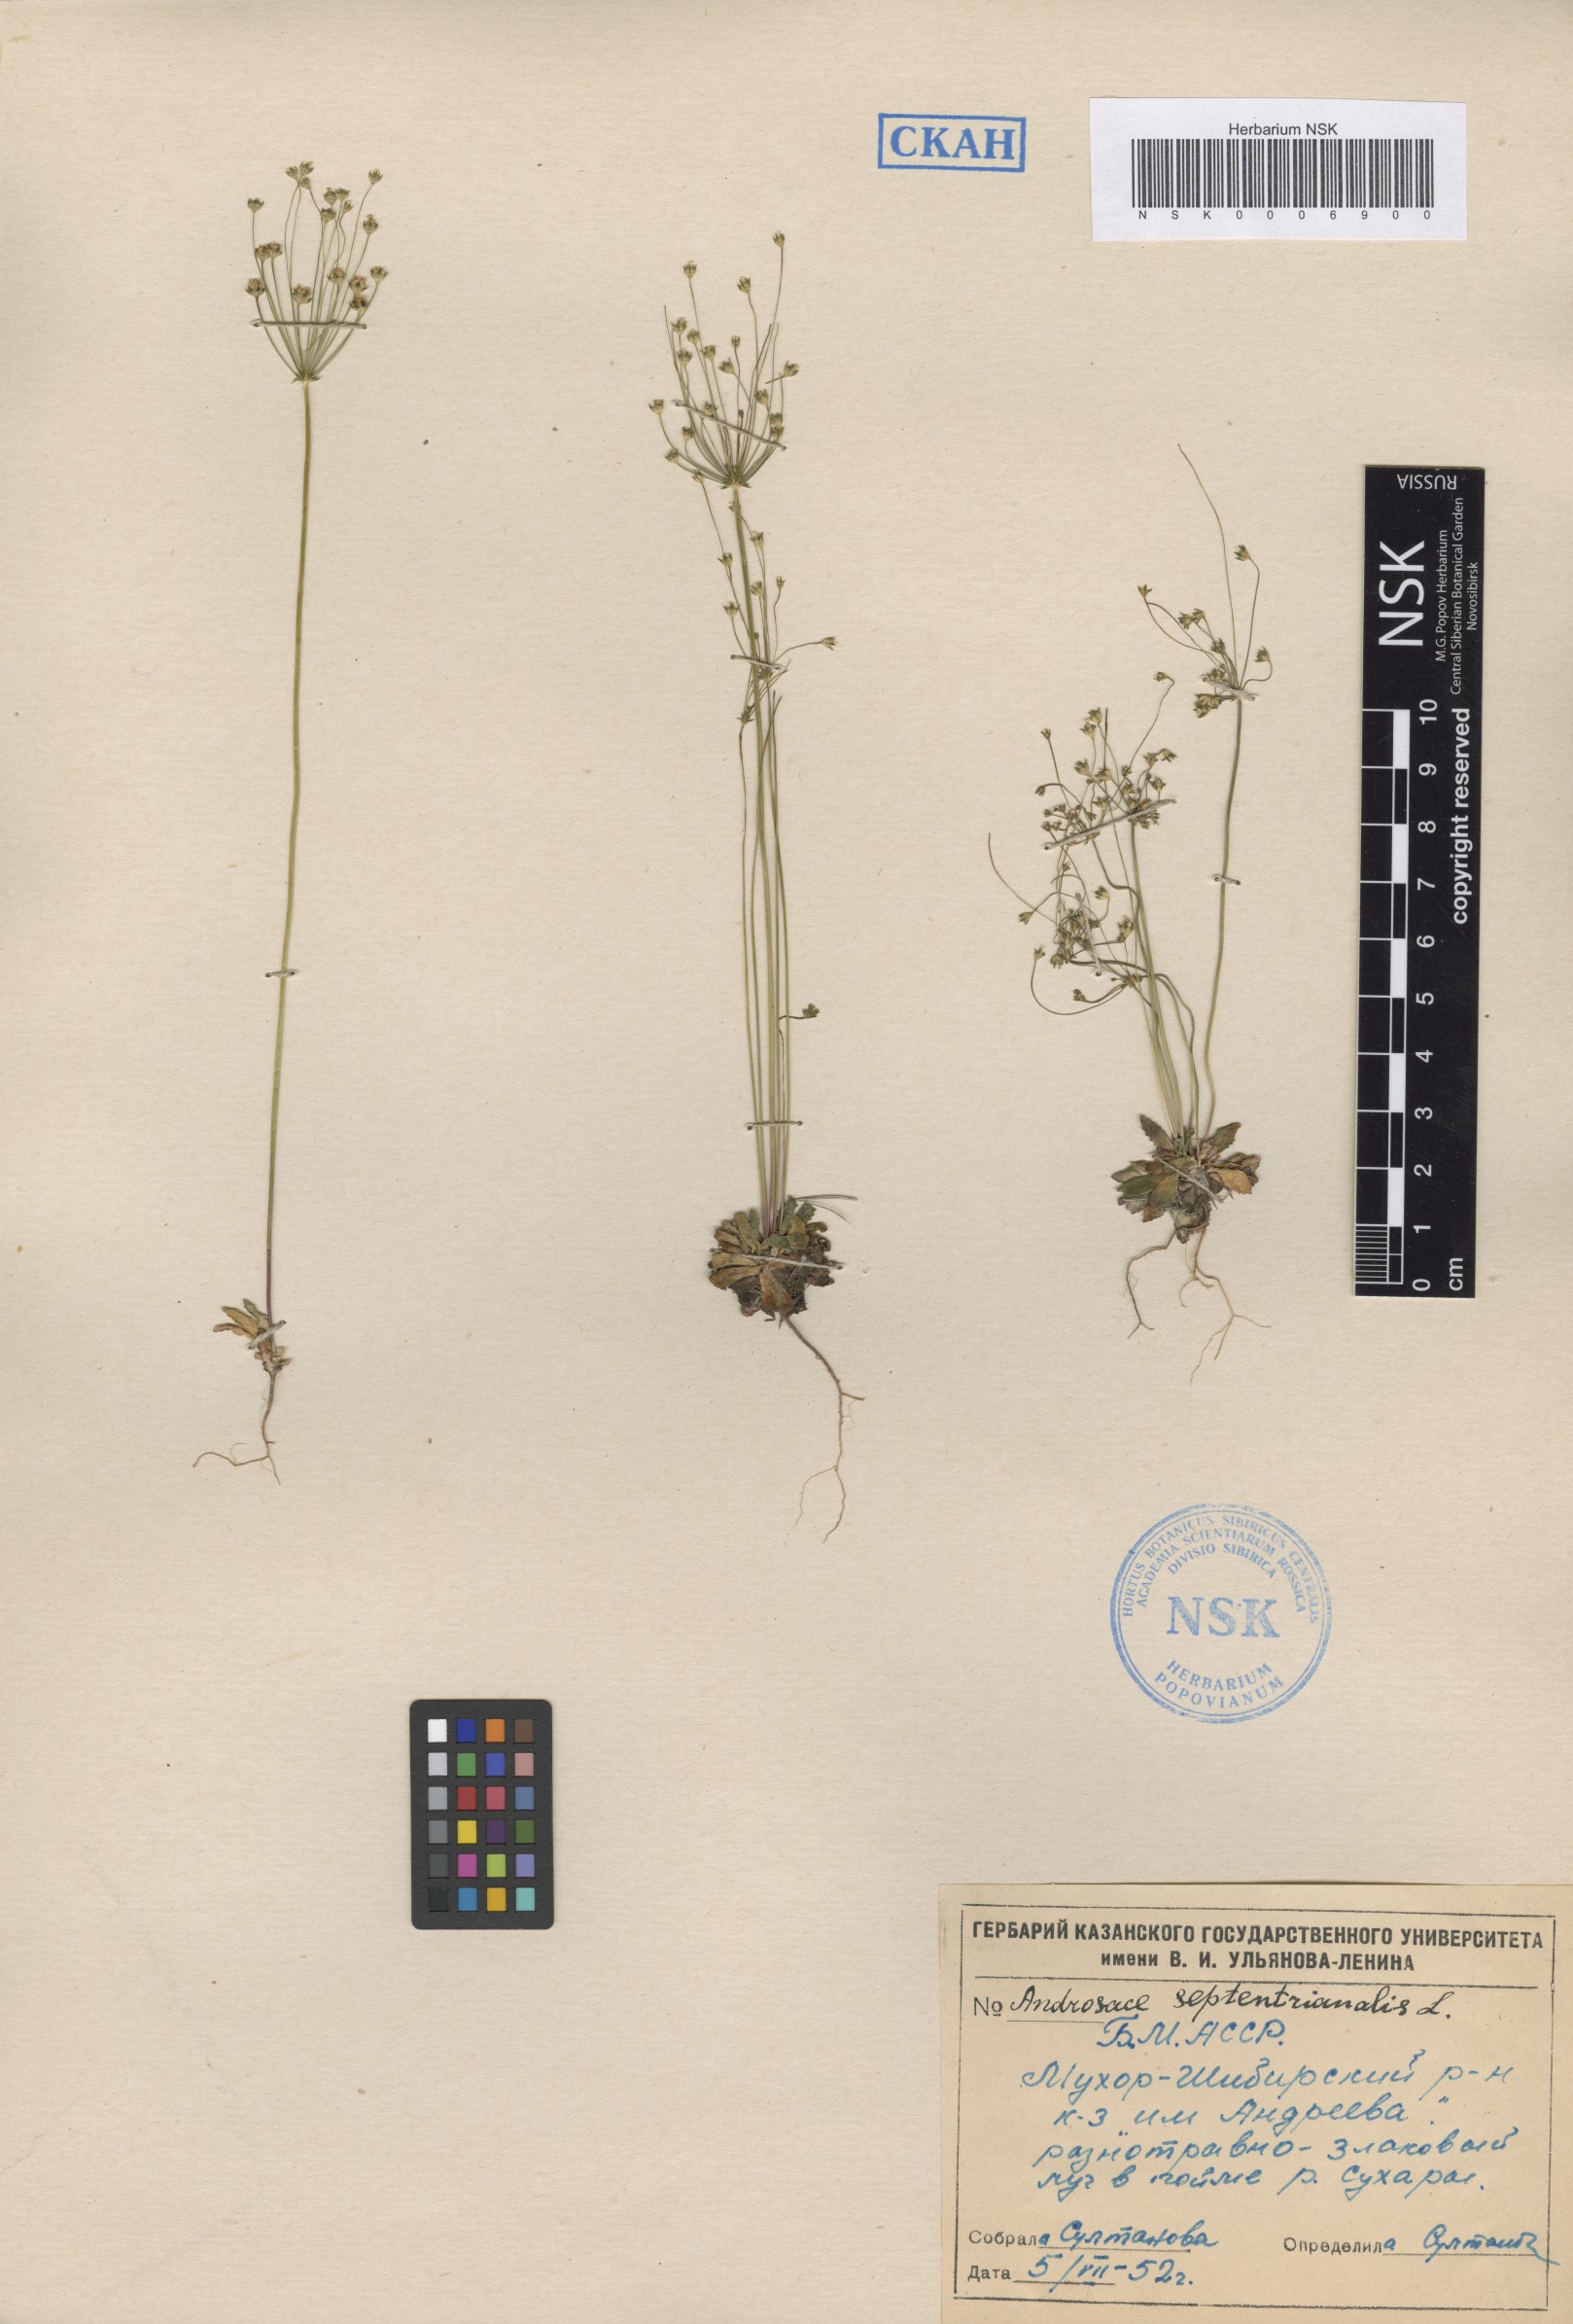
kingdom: Plantae
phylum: Tracheophyta
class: Magnoliopsida
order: Ericales
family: Primulaceae
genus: Androsace
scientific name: Androsace septentrionalis
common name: Hairy northern fairy-candelabra
